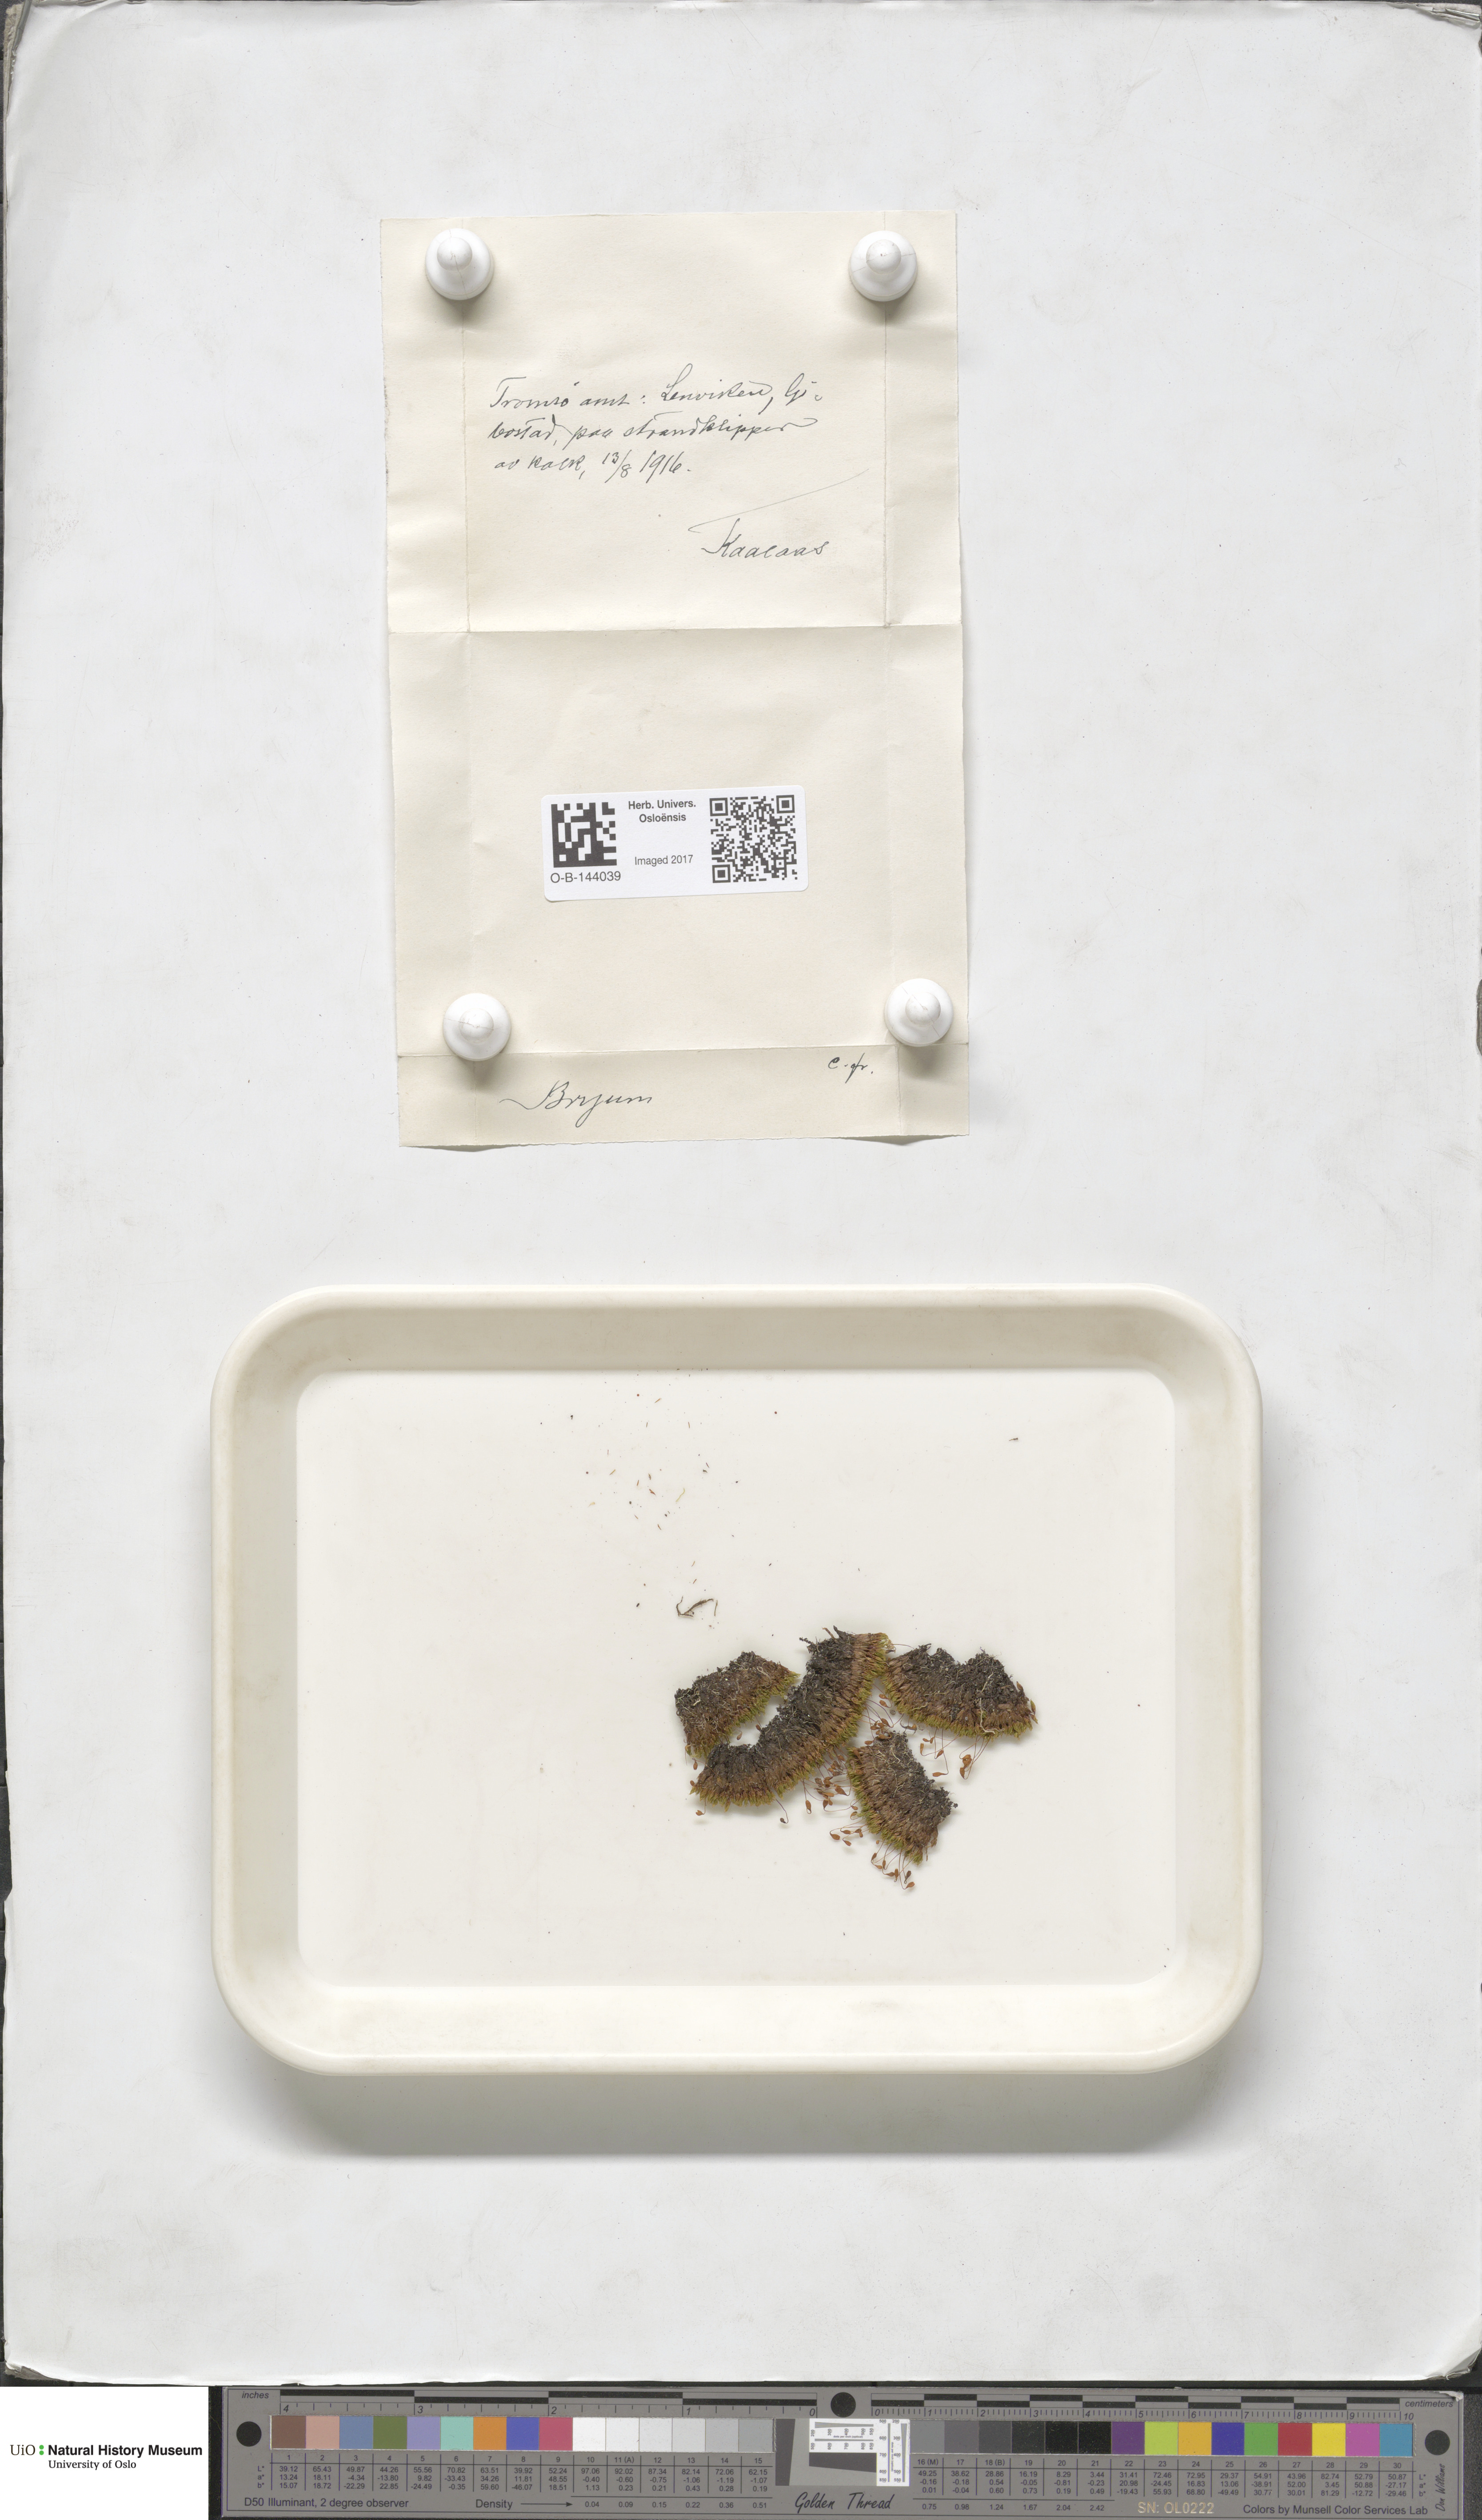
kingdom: Plantae
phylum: Bryophyta
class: Bryopsida
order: Bryales
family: Bryaceae
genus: Bryum
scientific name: Bryum
